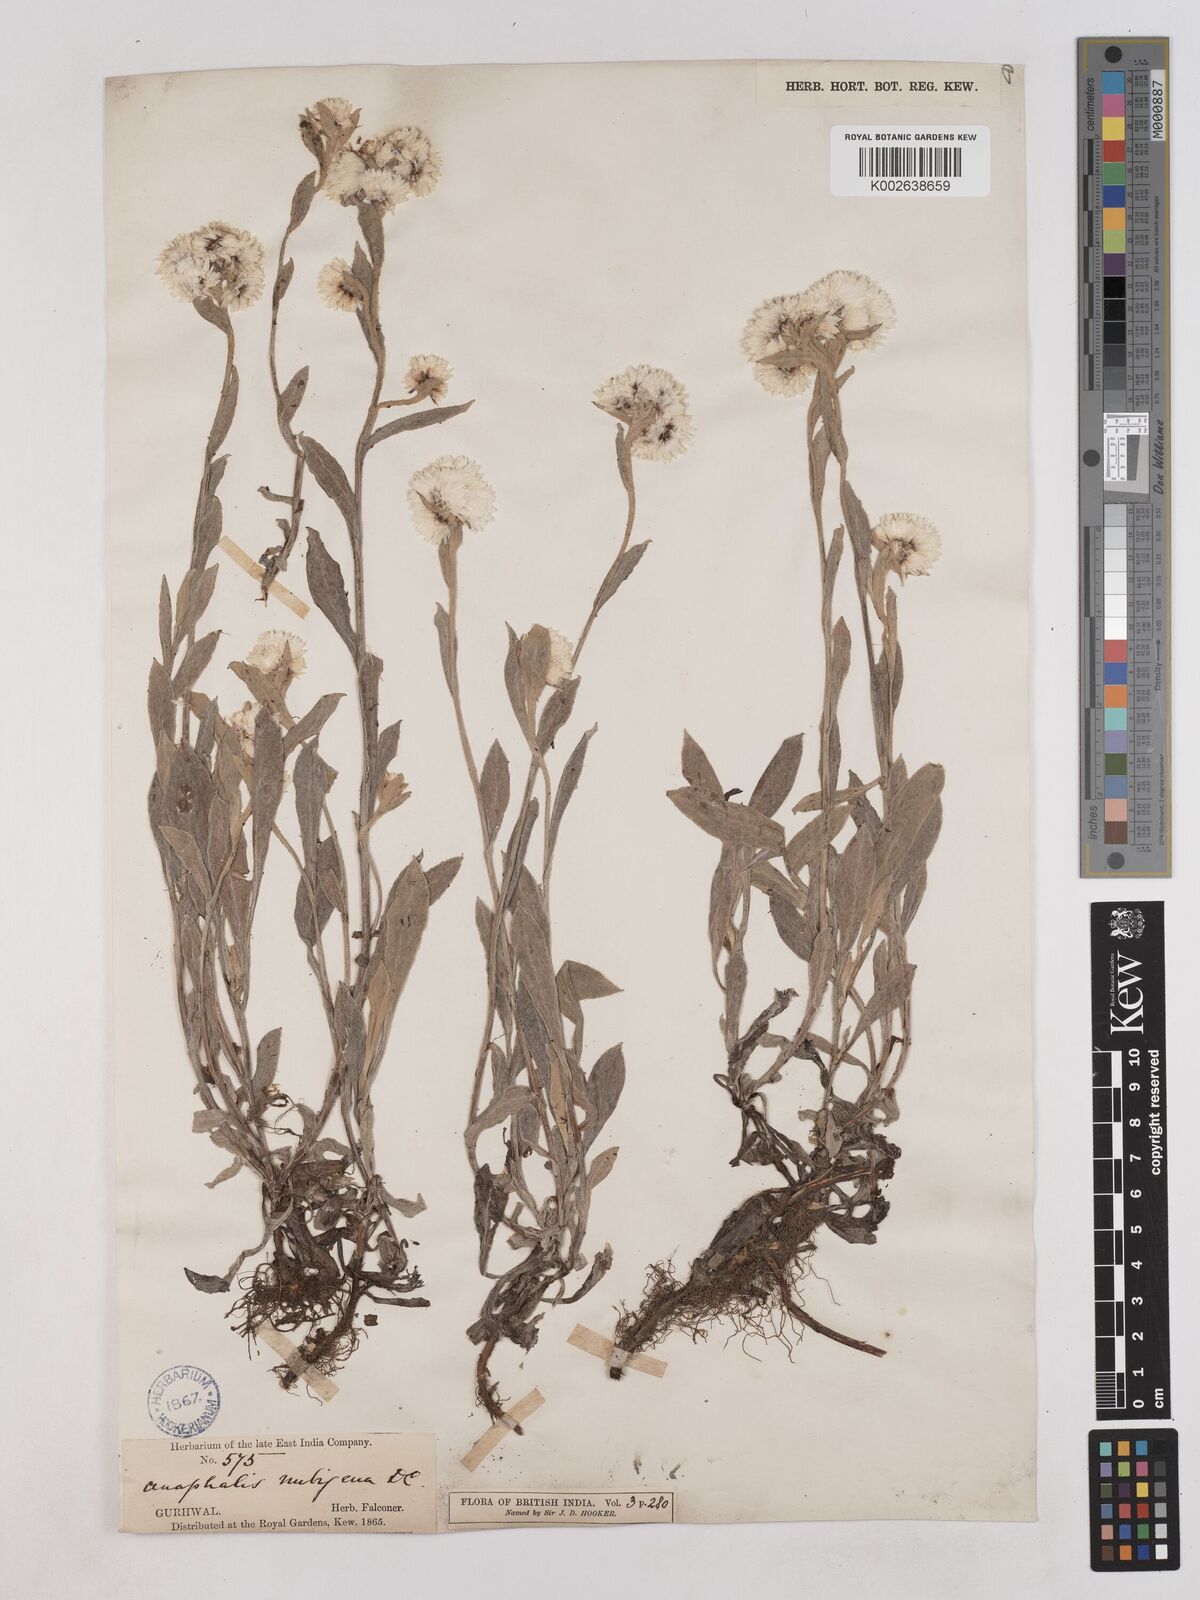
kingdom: Plantae
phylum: Tracheophyta
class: Magnoliopsida
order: Asterales
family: Asteraceae
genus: Anaphalioides
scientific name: Anaphalioides trinervis
